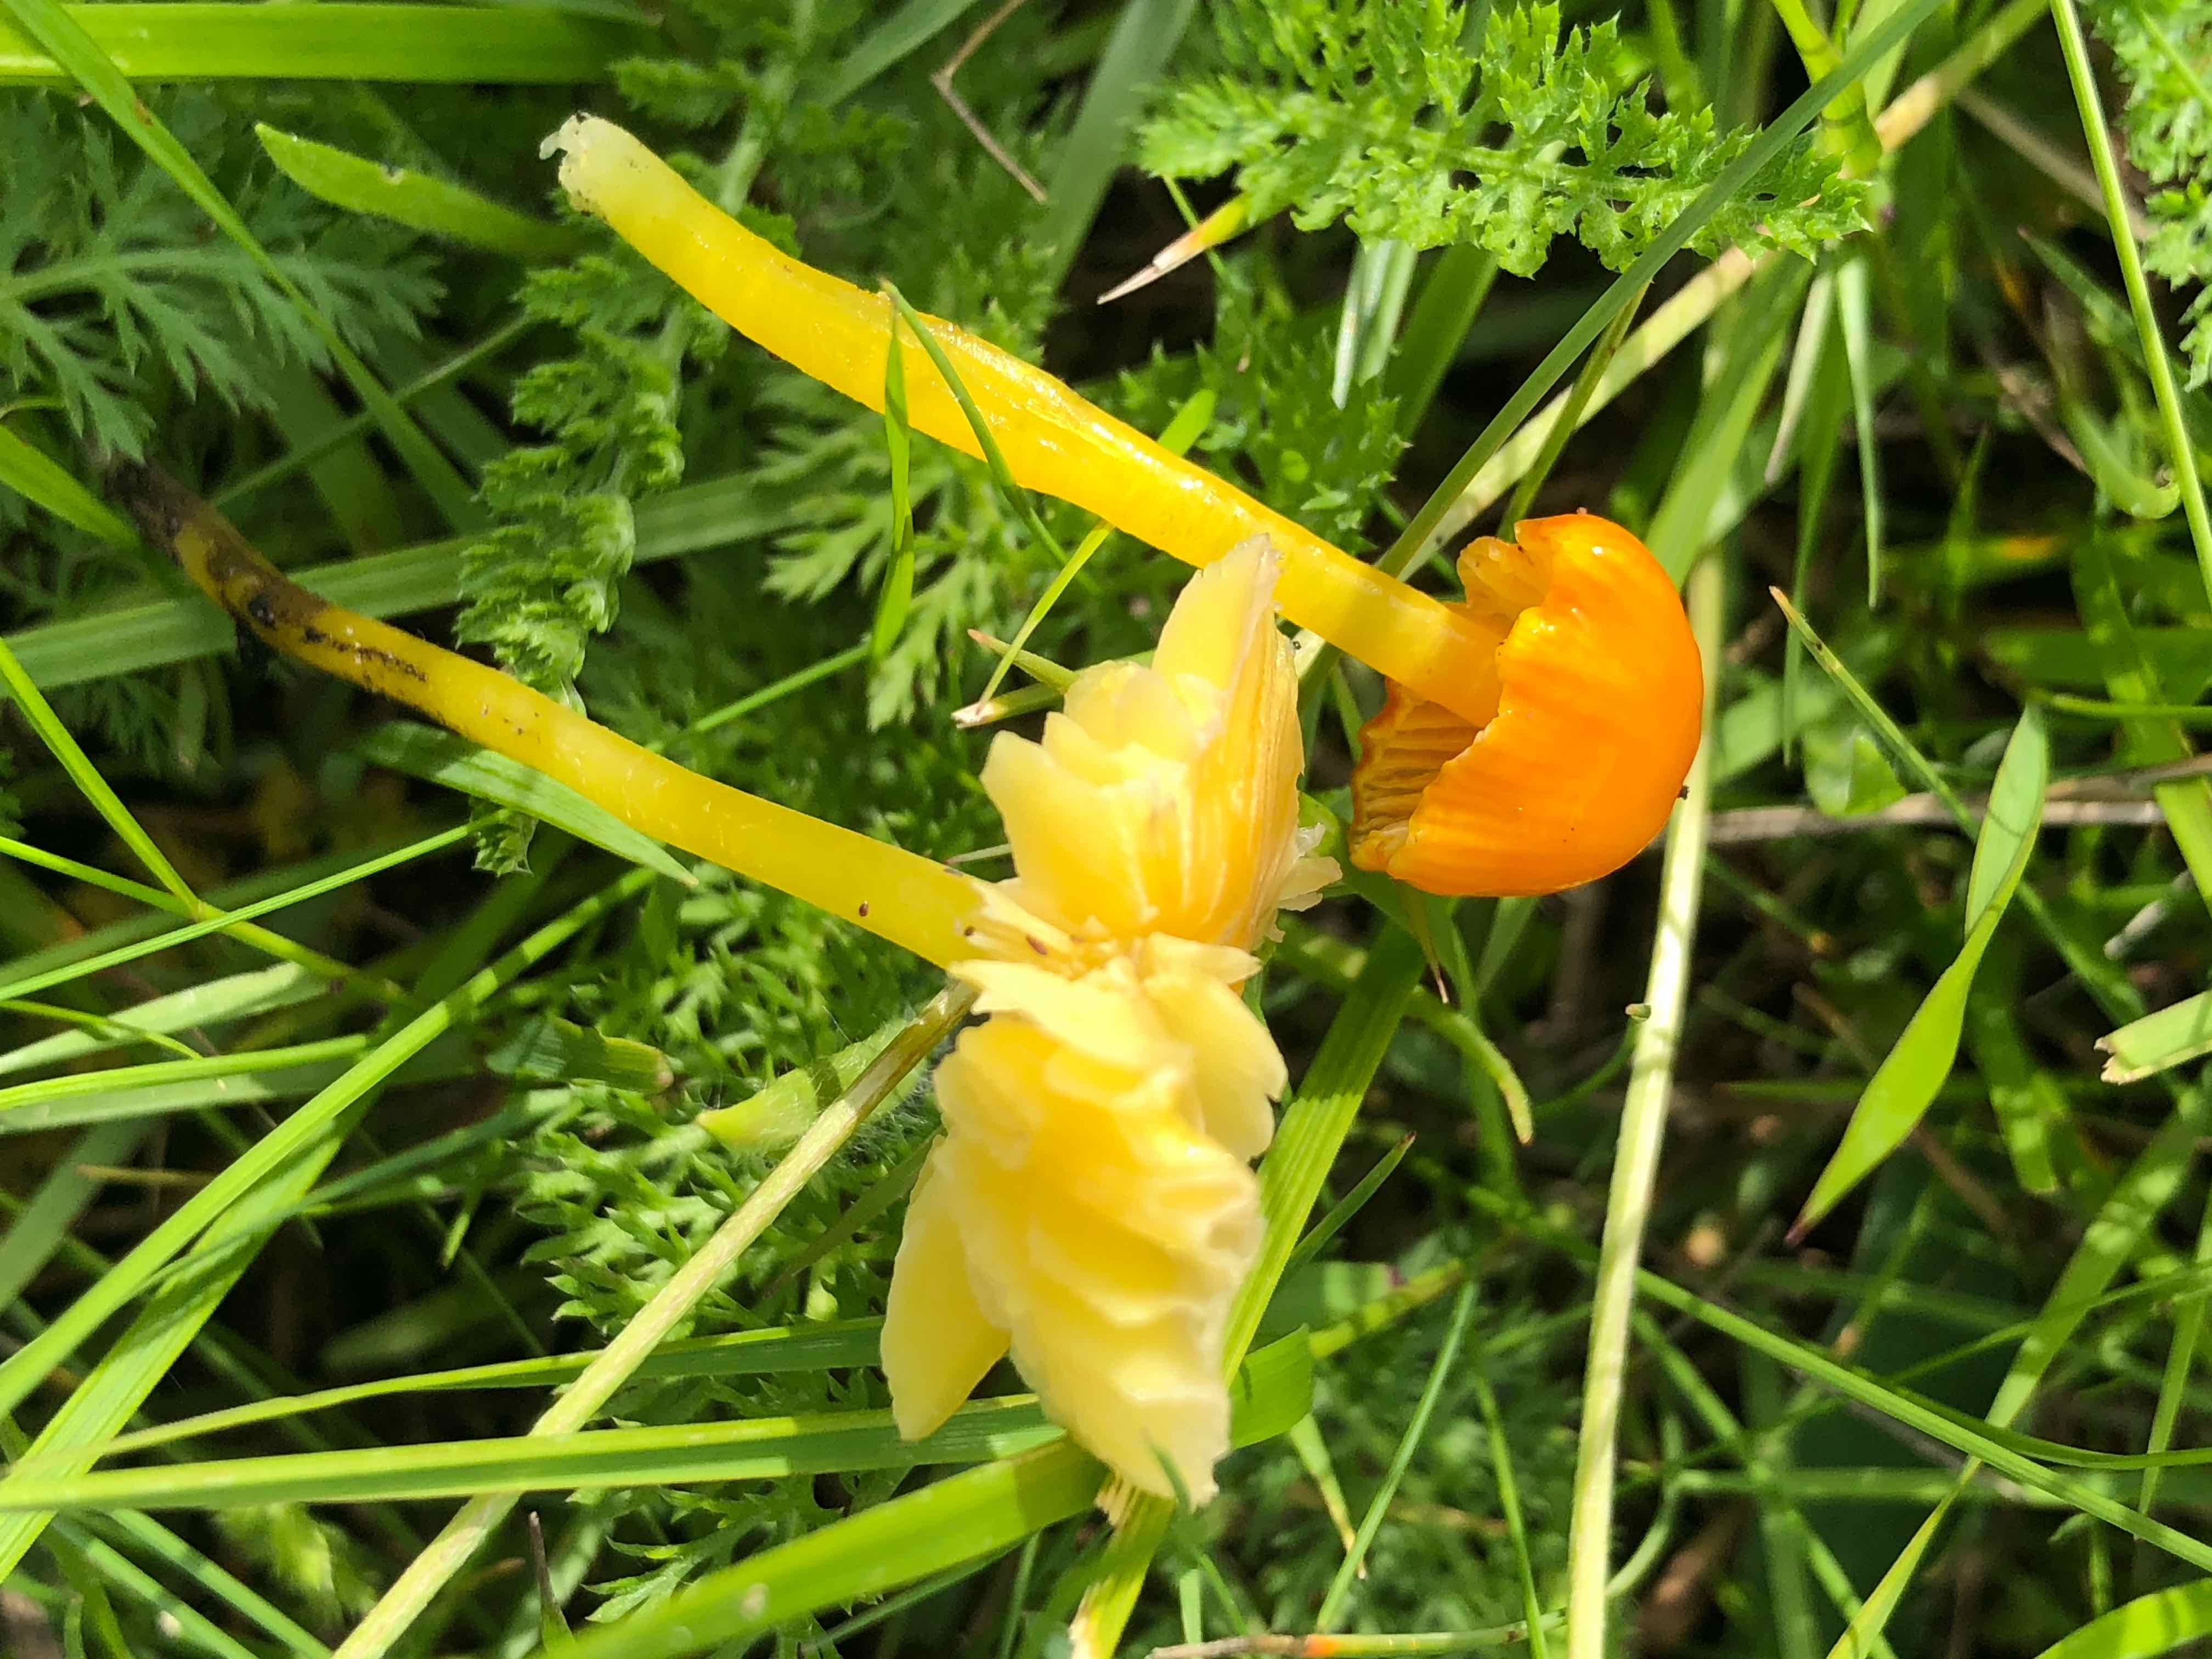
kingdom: Fungi
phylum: Basidiomycota
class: Agaricomycetes
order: Agaricales
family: Hygrophoraceae
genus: Hygrocybe
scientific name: Hygrocybe glutinipes
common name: slimstokket vokshat
